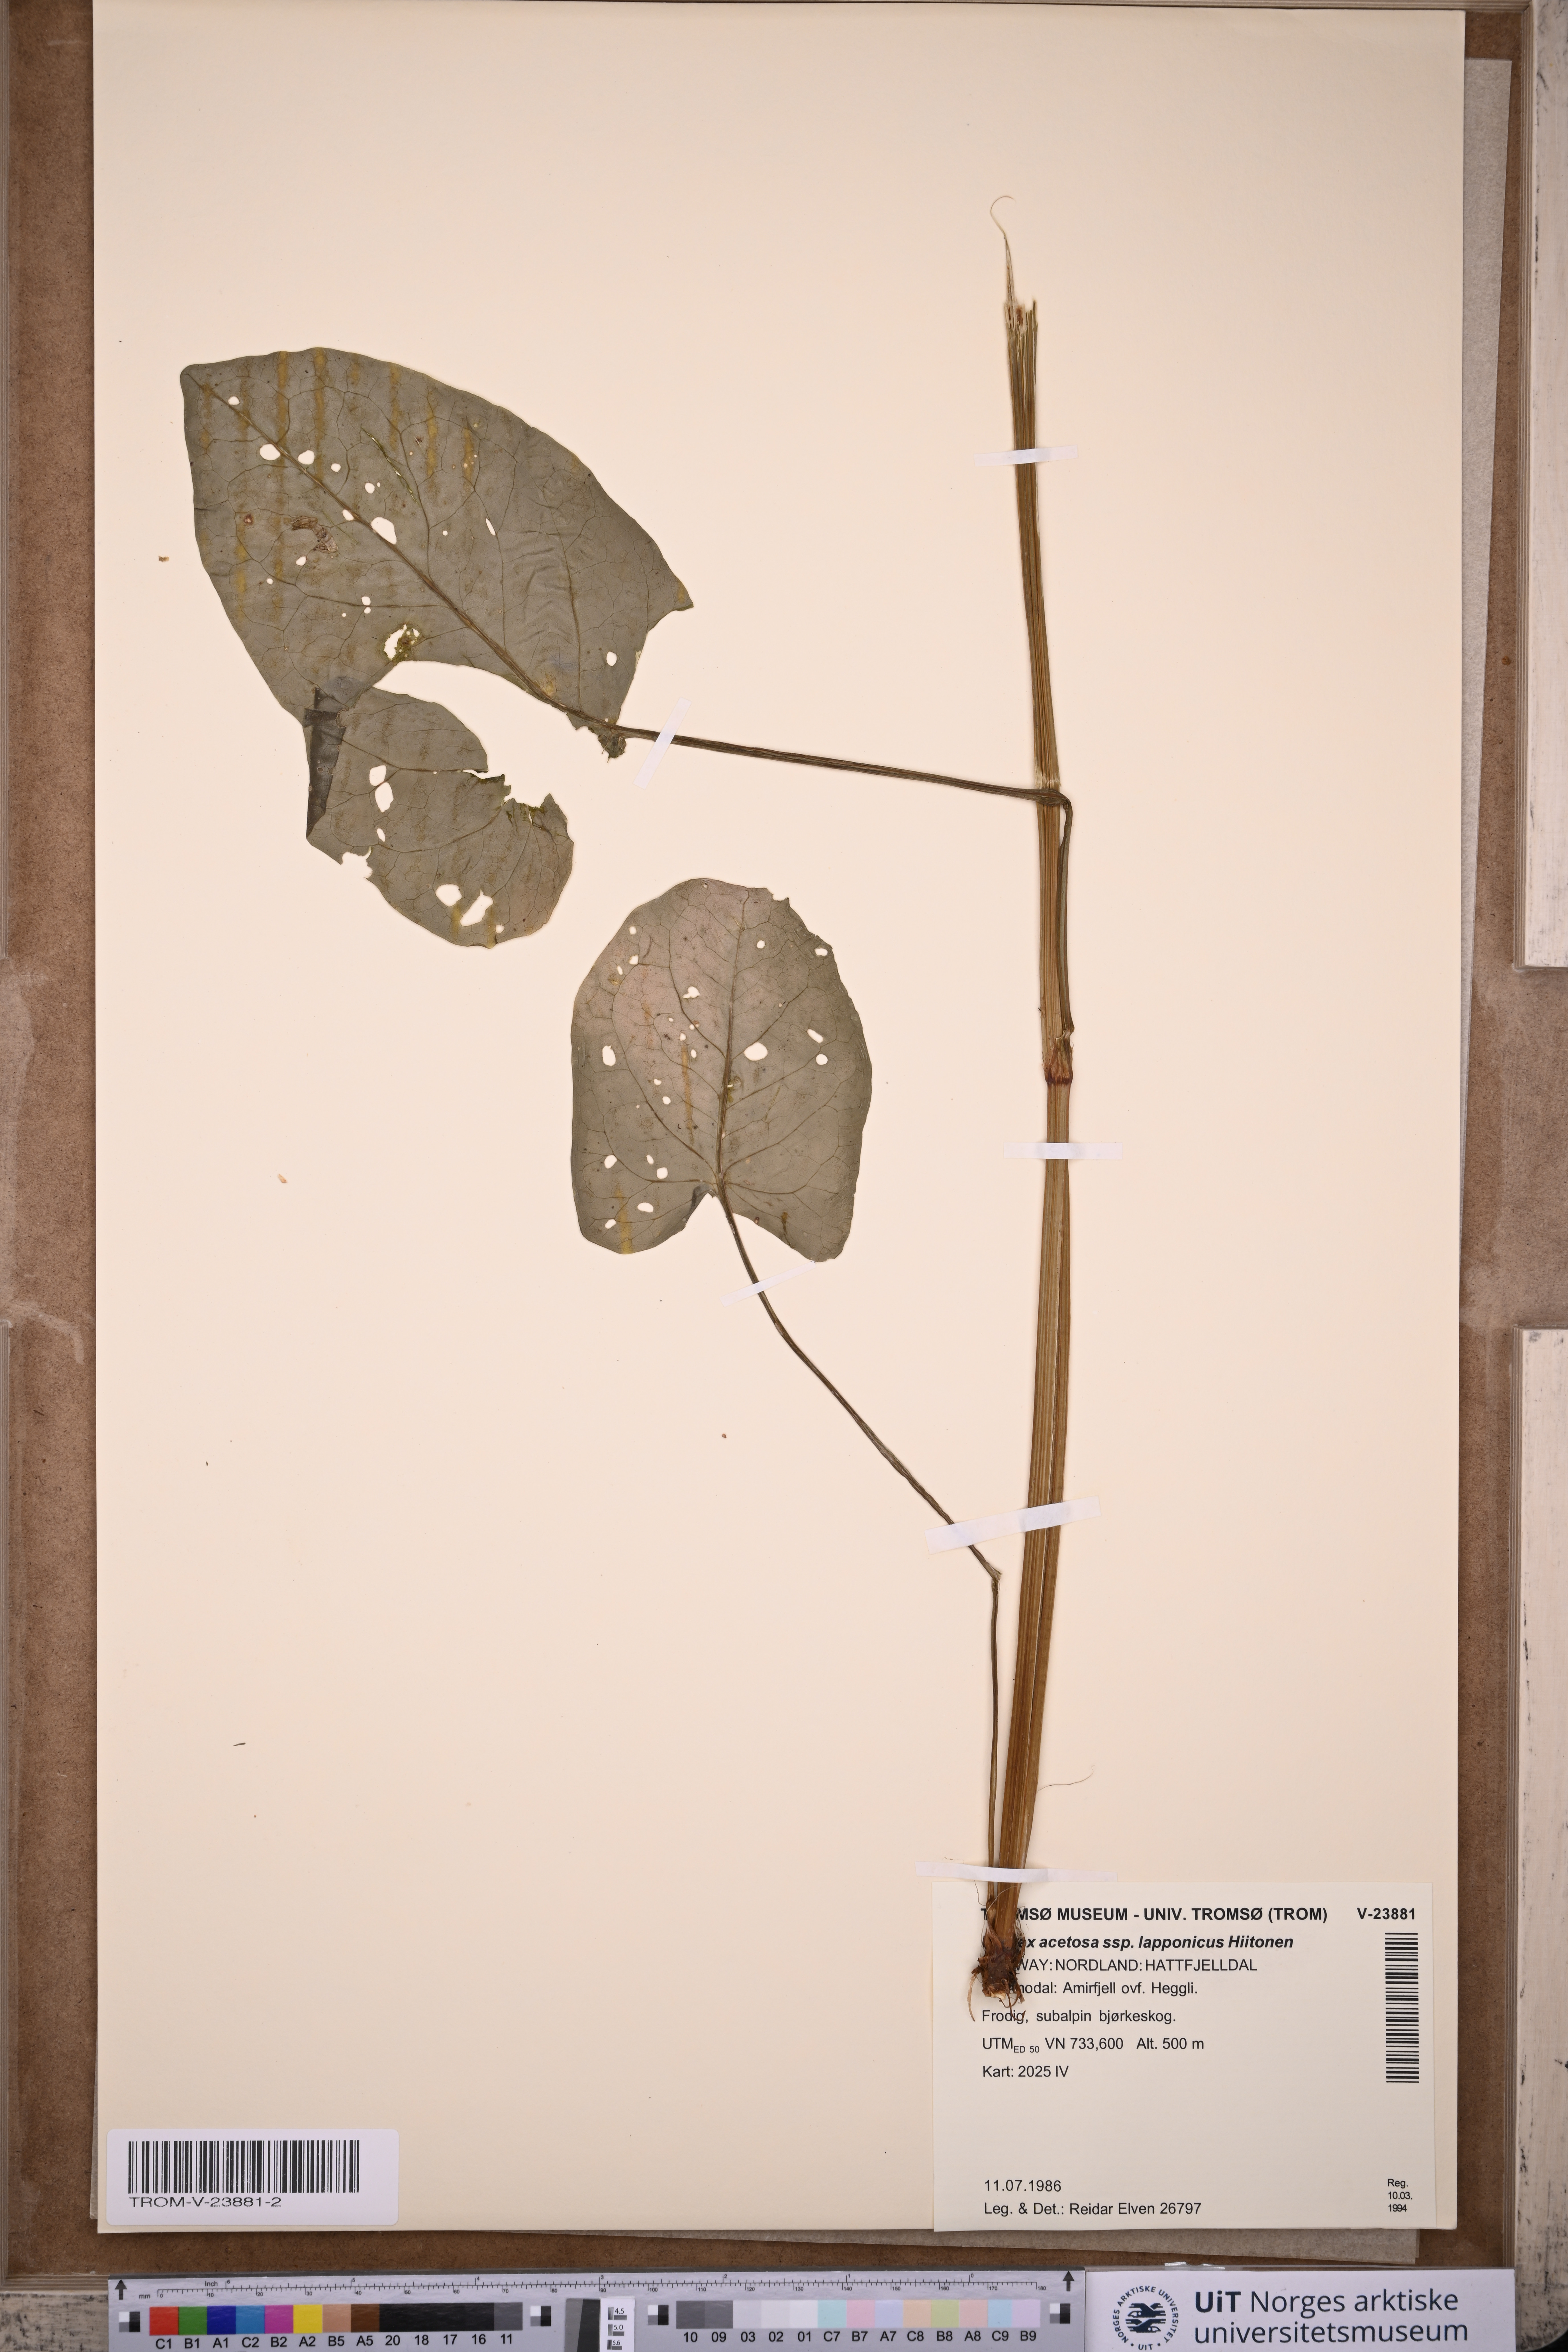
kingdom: Plantae
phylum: Tracheophyta
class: Magnoliopsida
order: Caryophyllales
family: Polygonaceae
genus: Rumex
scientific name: Rumex lapponicus
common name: Lapland mountain sorrel
